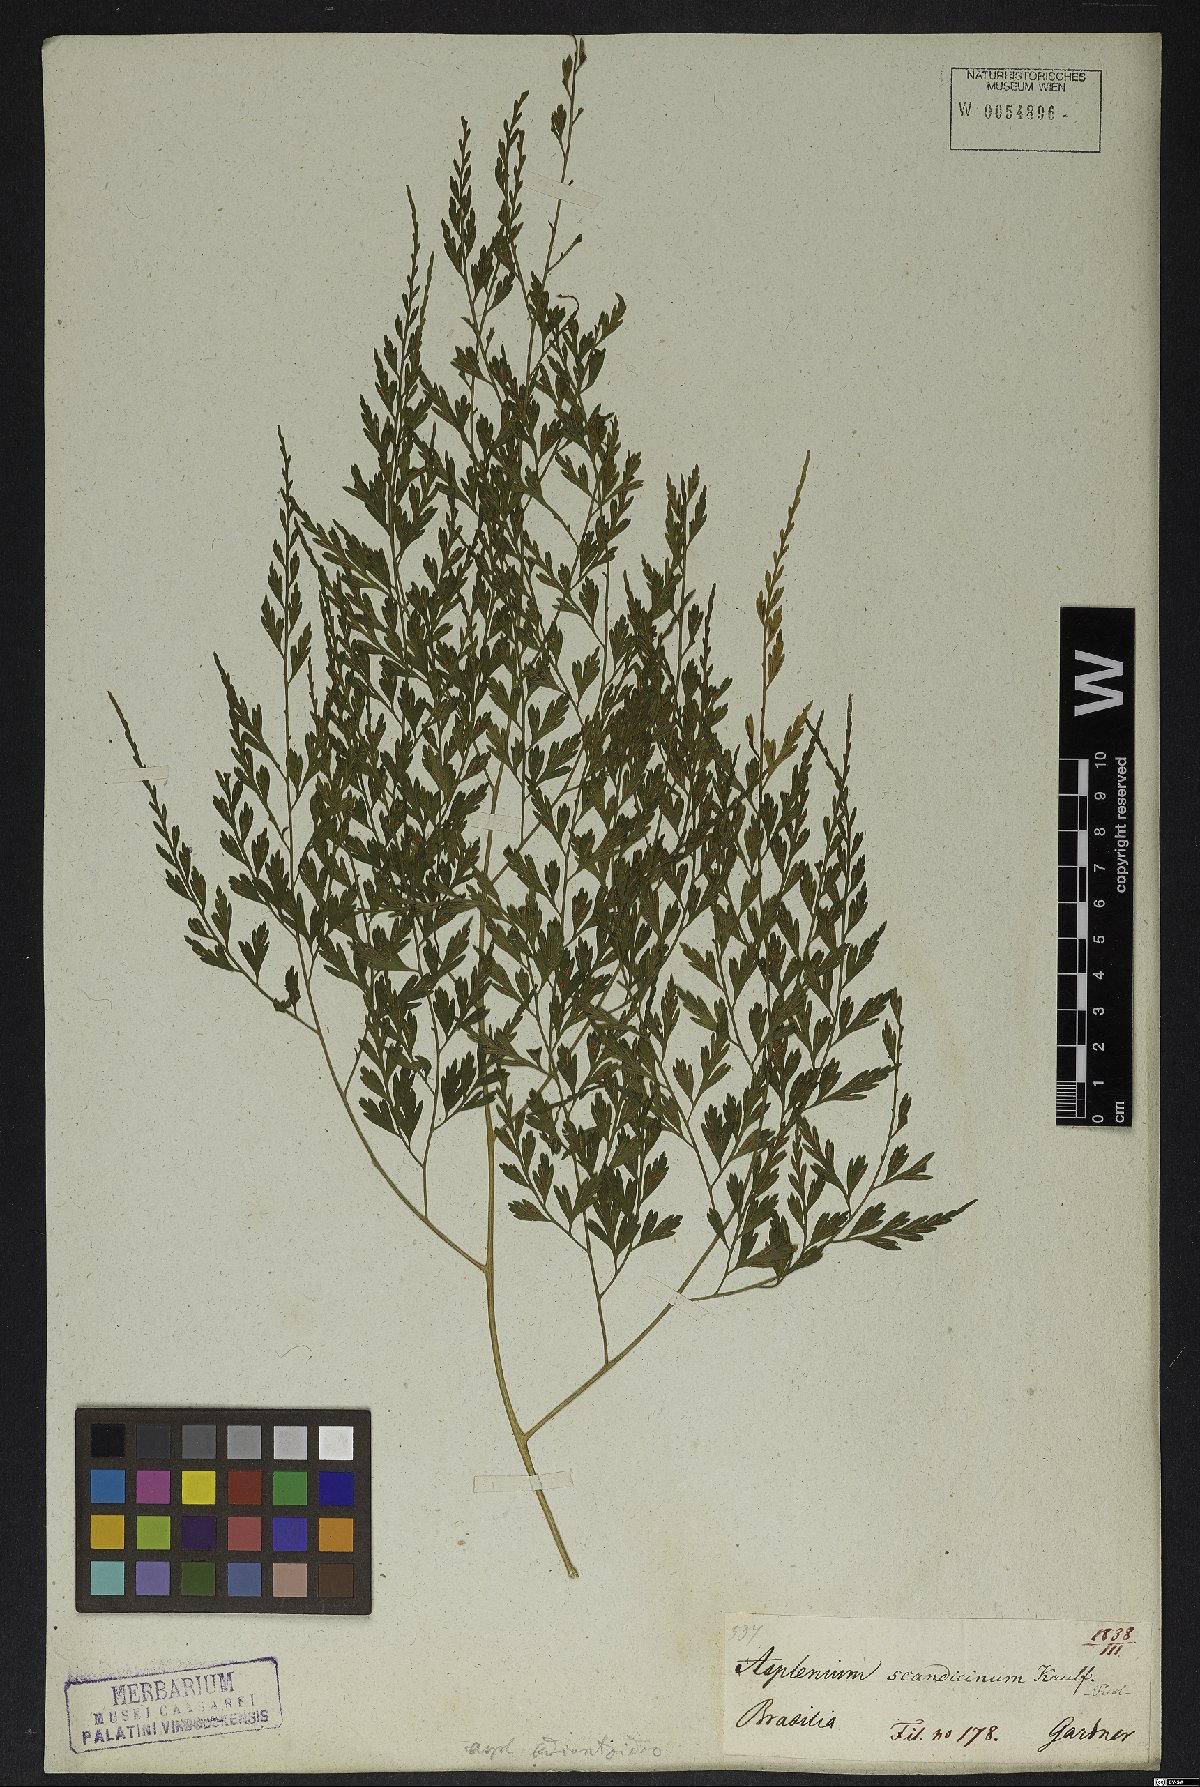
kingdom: Plantae
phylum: Tracheophyta
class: Polypodiopsida
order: Polypodiales
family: Aspleniaceae
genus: Asplenium
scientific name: Asplenium scandicinum
